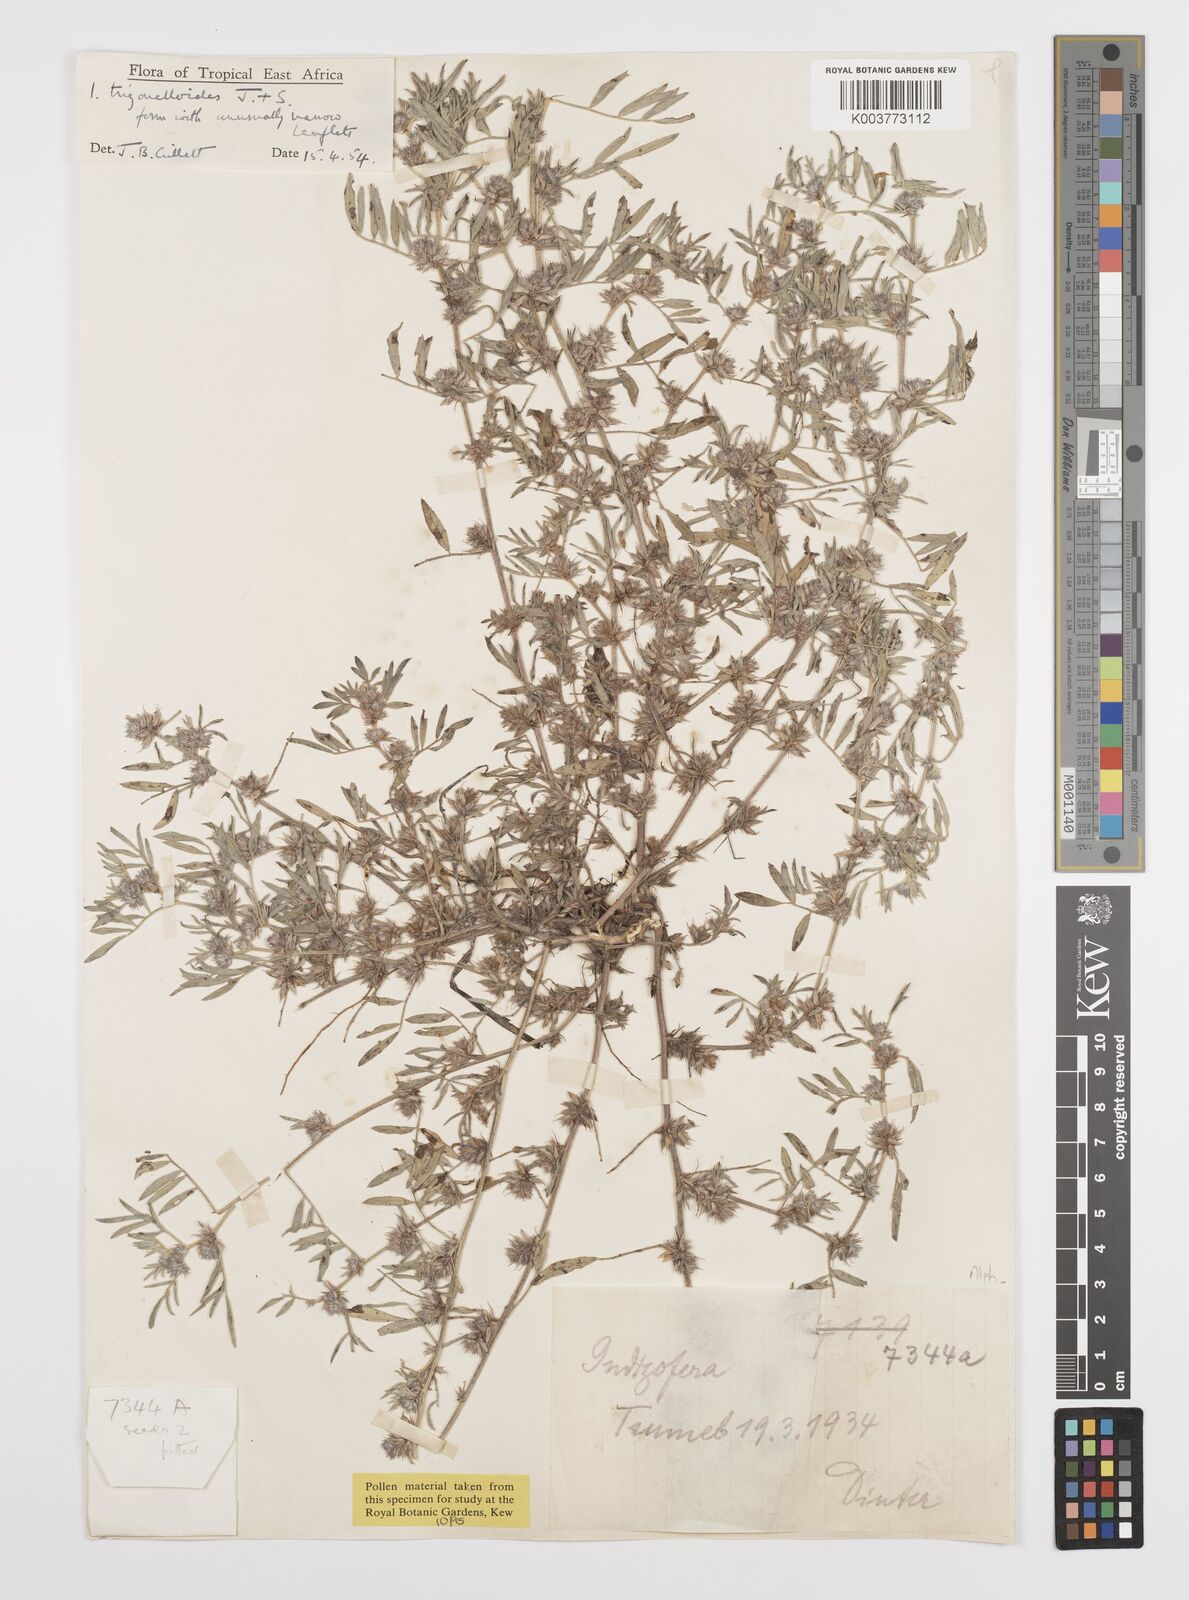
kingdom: Plantae
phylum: Tracheophyta
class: Magnoliopsida
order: Fabales
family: Fabaceae
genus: Indigofera
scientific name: Indigofera trigonelloides
